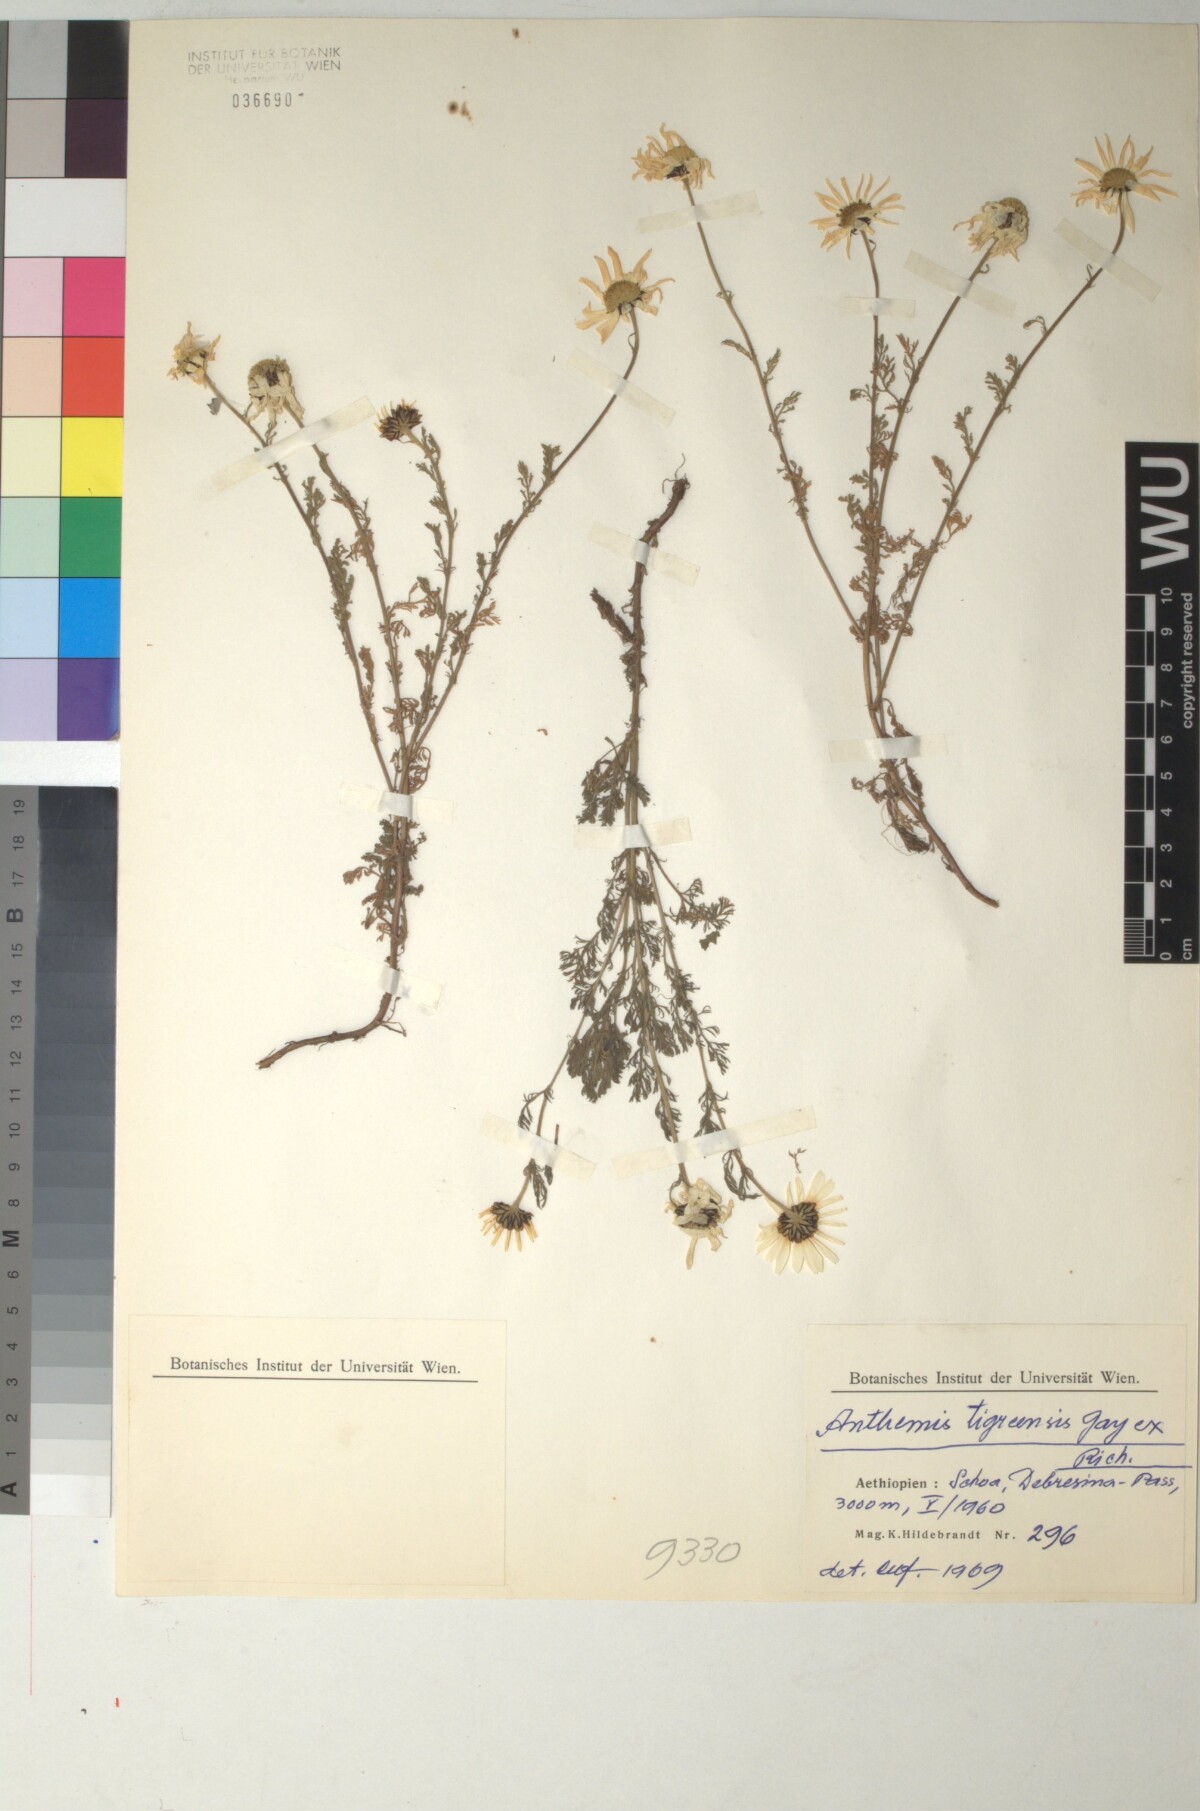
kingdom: Plantae
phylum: Tracheophyta
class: Magnoliopsida
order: Asterales
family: Asteraceae
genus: Anthemis
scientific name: Anthemis tigreensis
